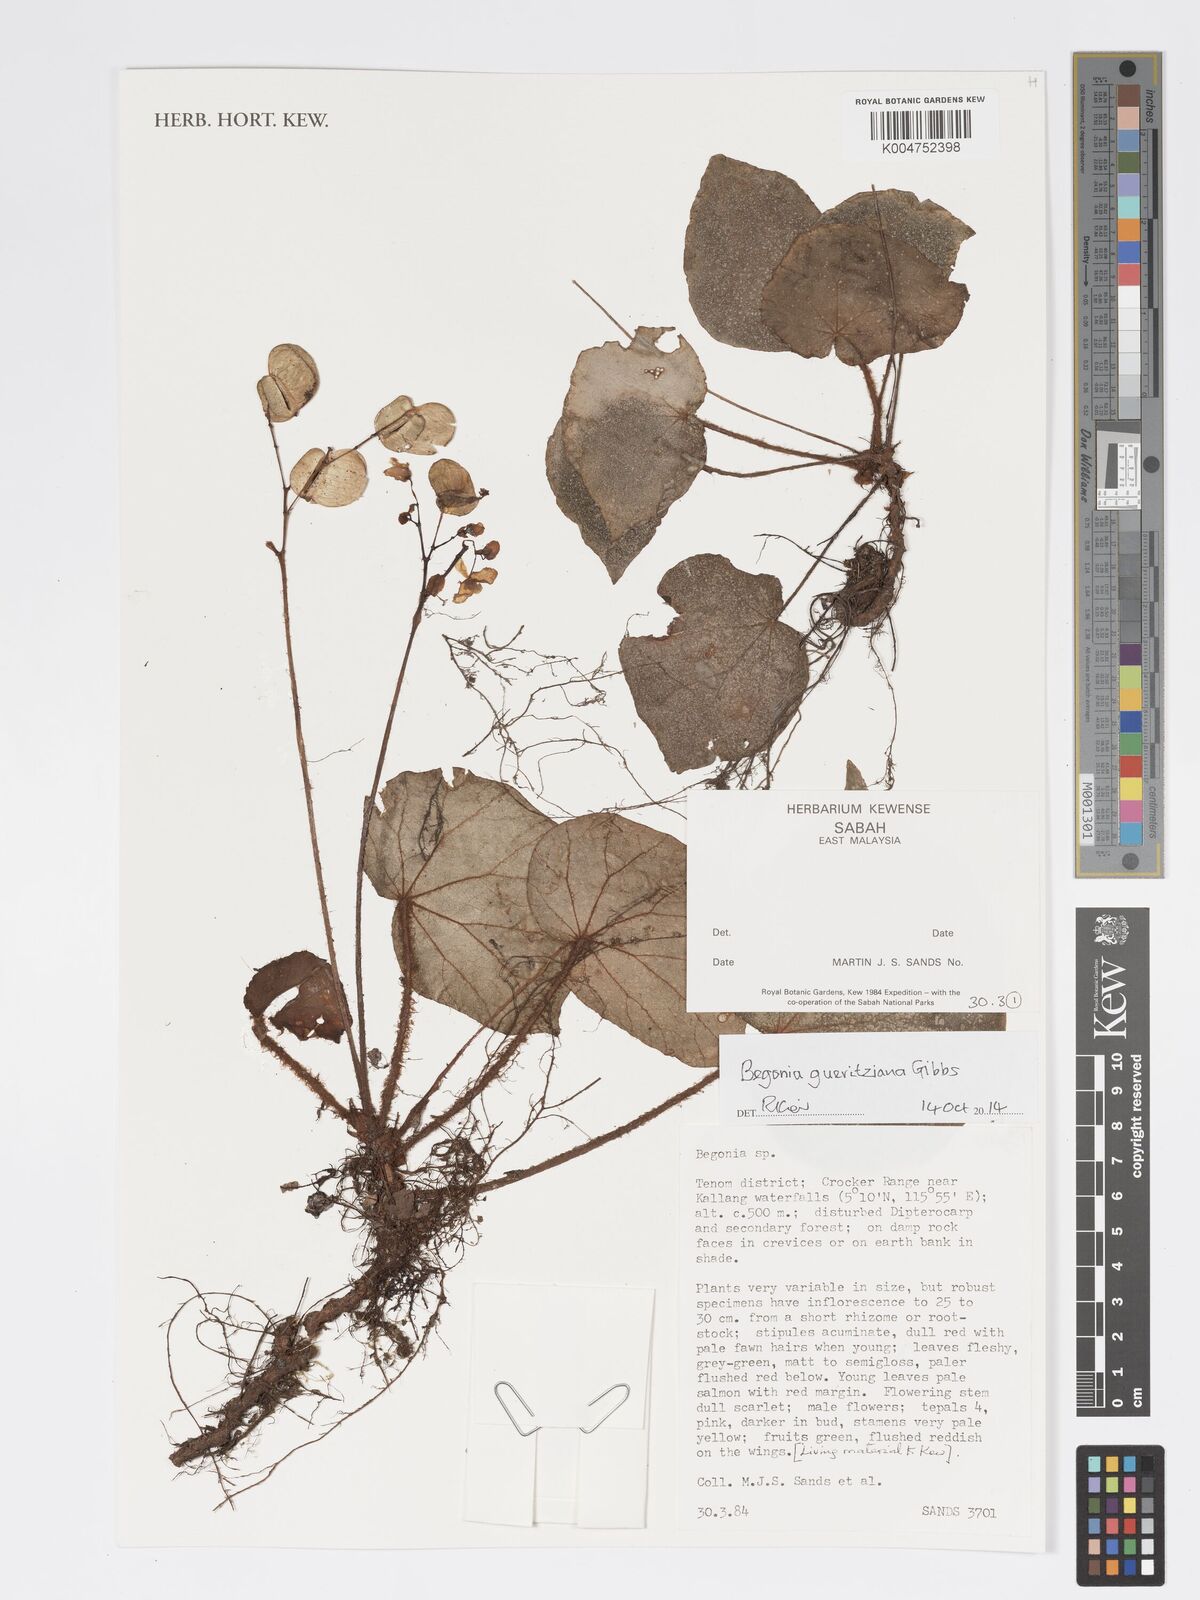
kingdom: Plantae
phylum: Tracheophyta
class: Magnoliopsida
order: Cucurbitales
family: Begoniaceae
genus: Begonia
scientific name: Begonia gueritziana
